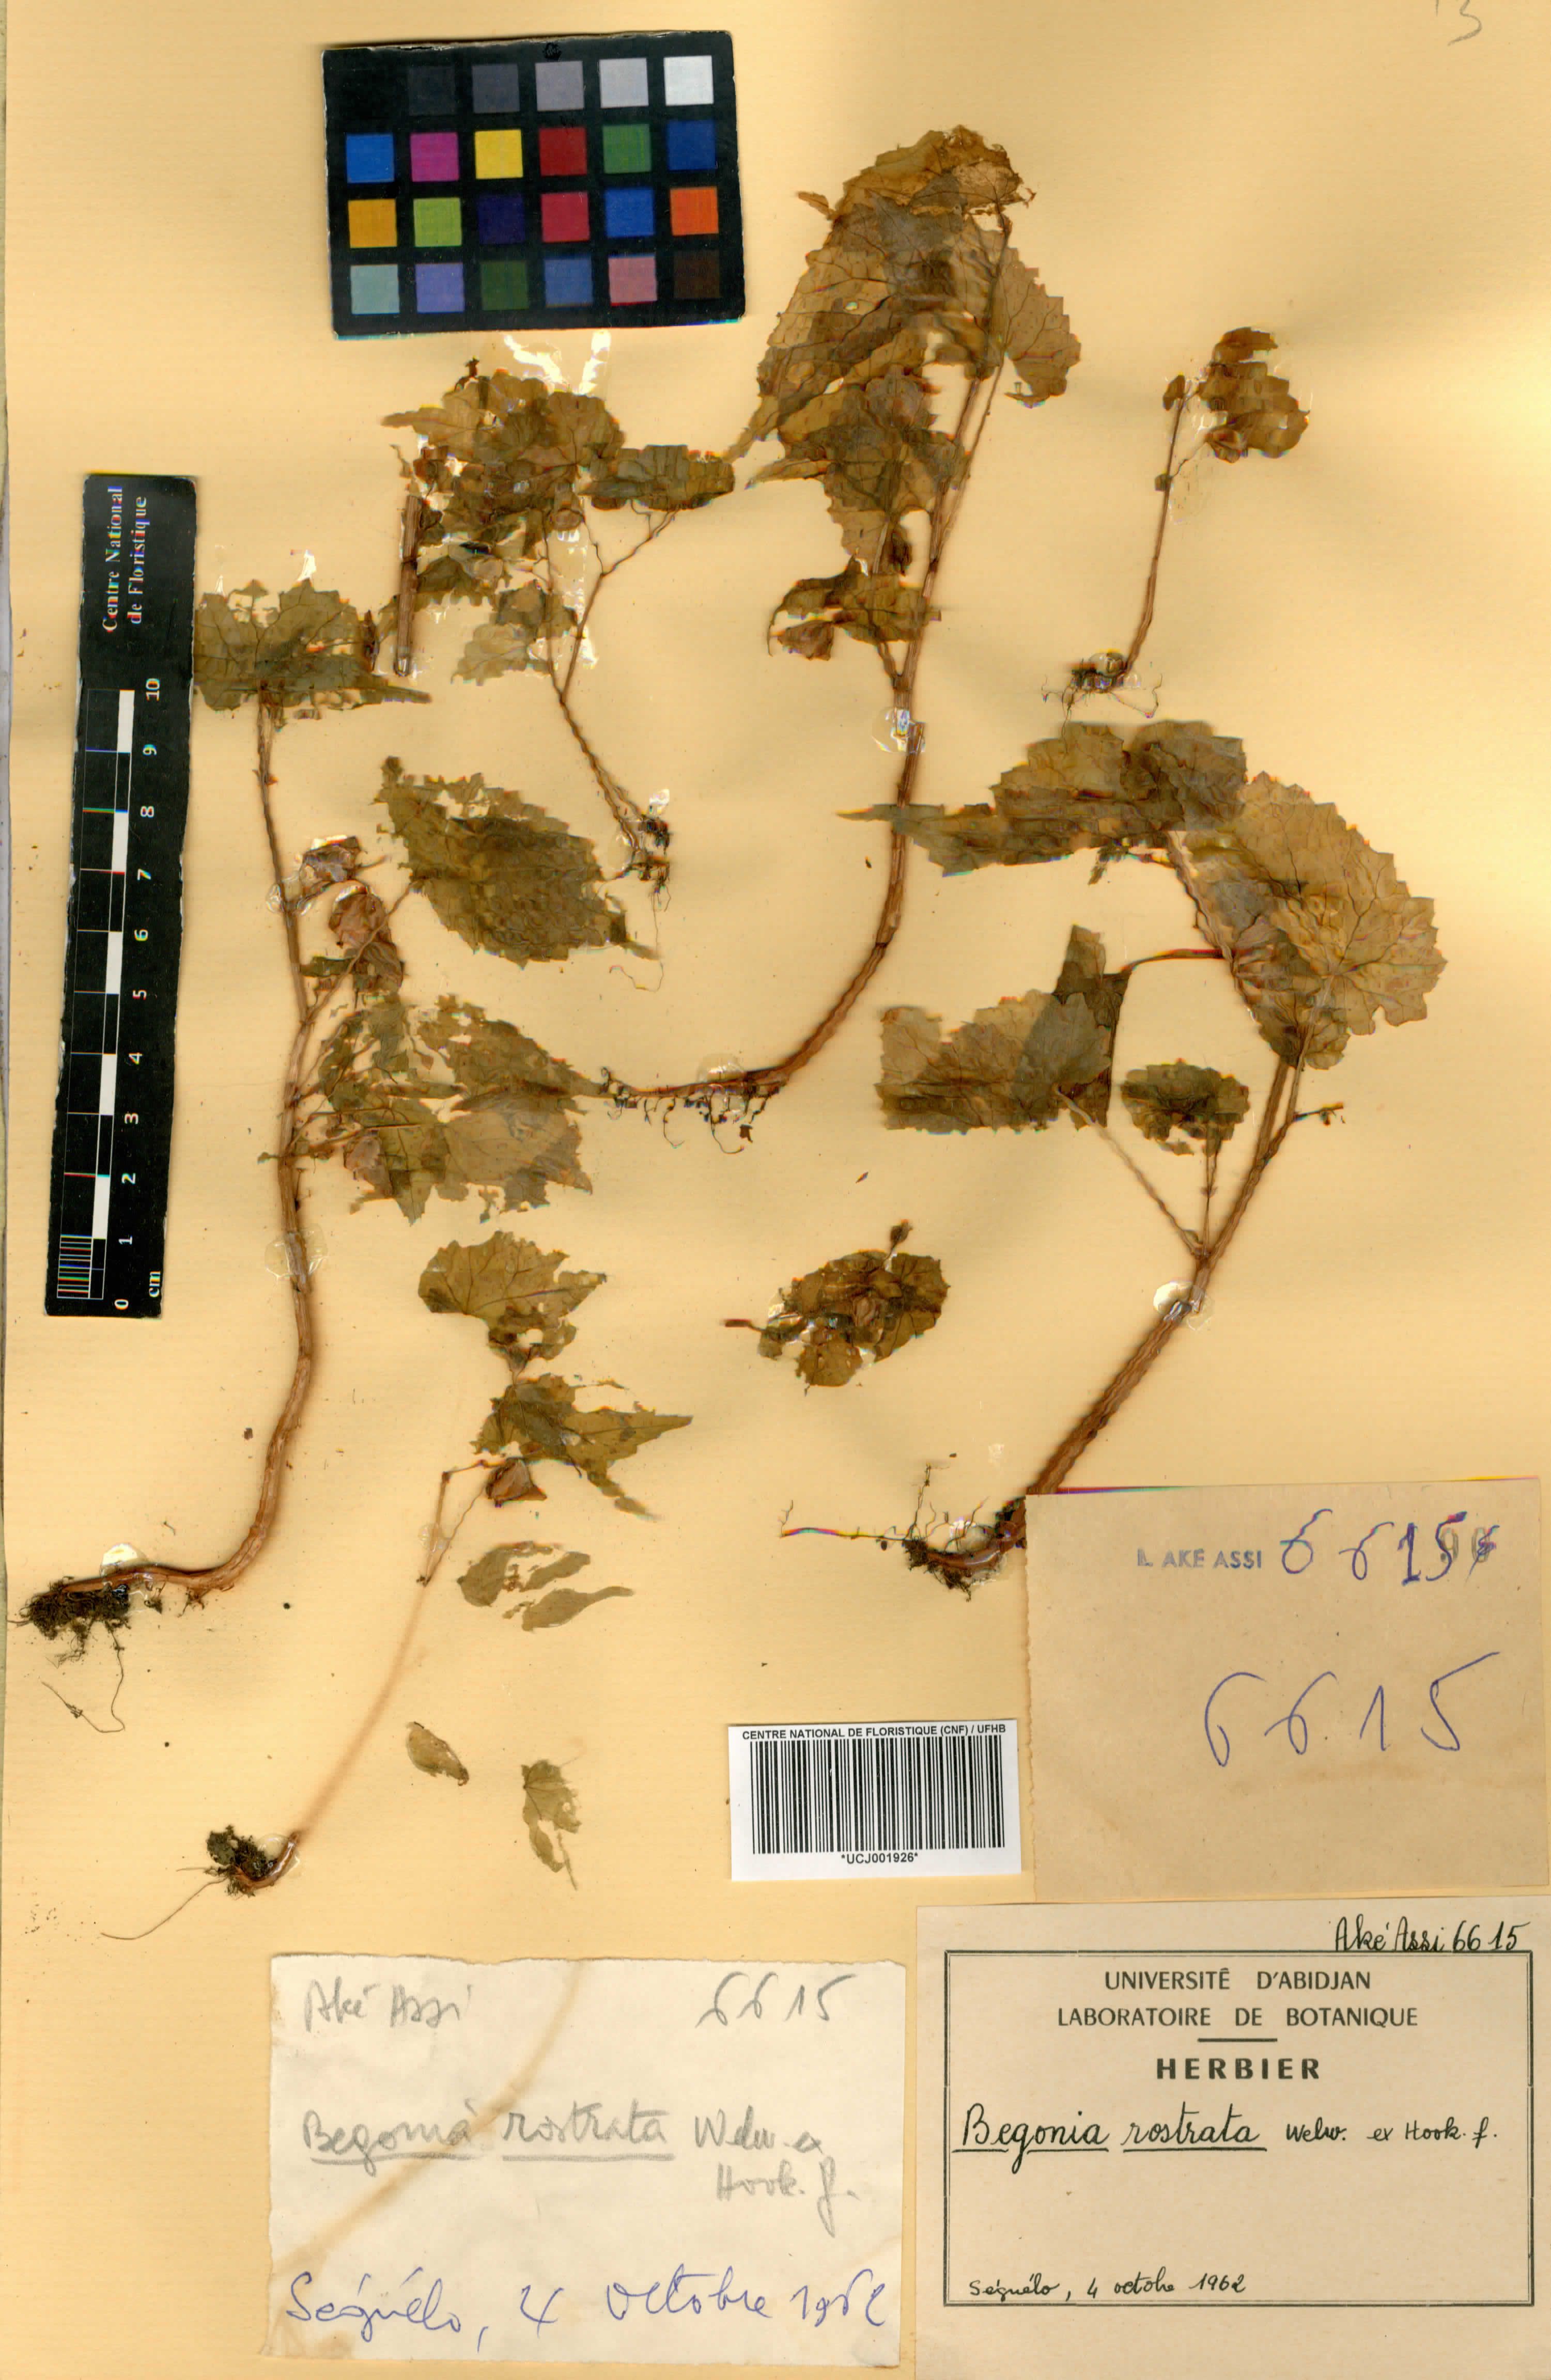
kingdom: Plantae
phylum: Tracheophyta
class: Magnoliopsida
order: Cucurbitales
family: Begoniaceae
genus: Begonia
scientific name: Begonia rostrata
